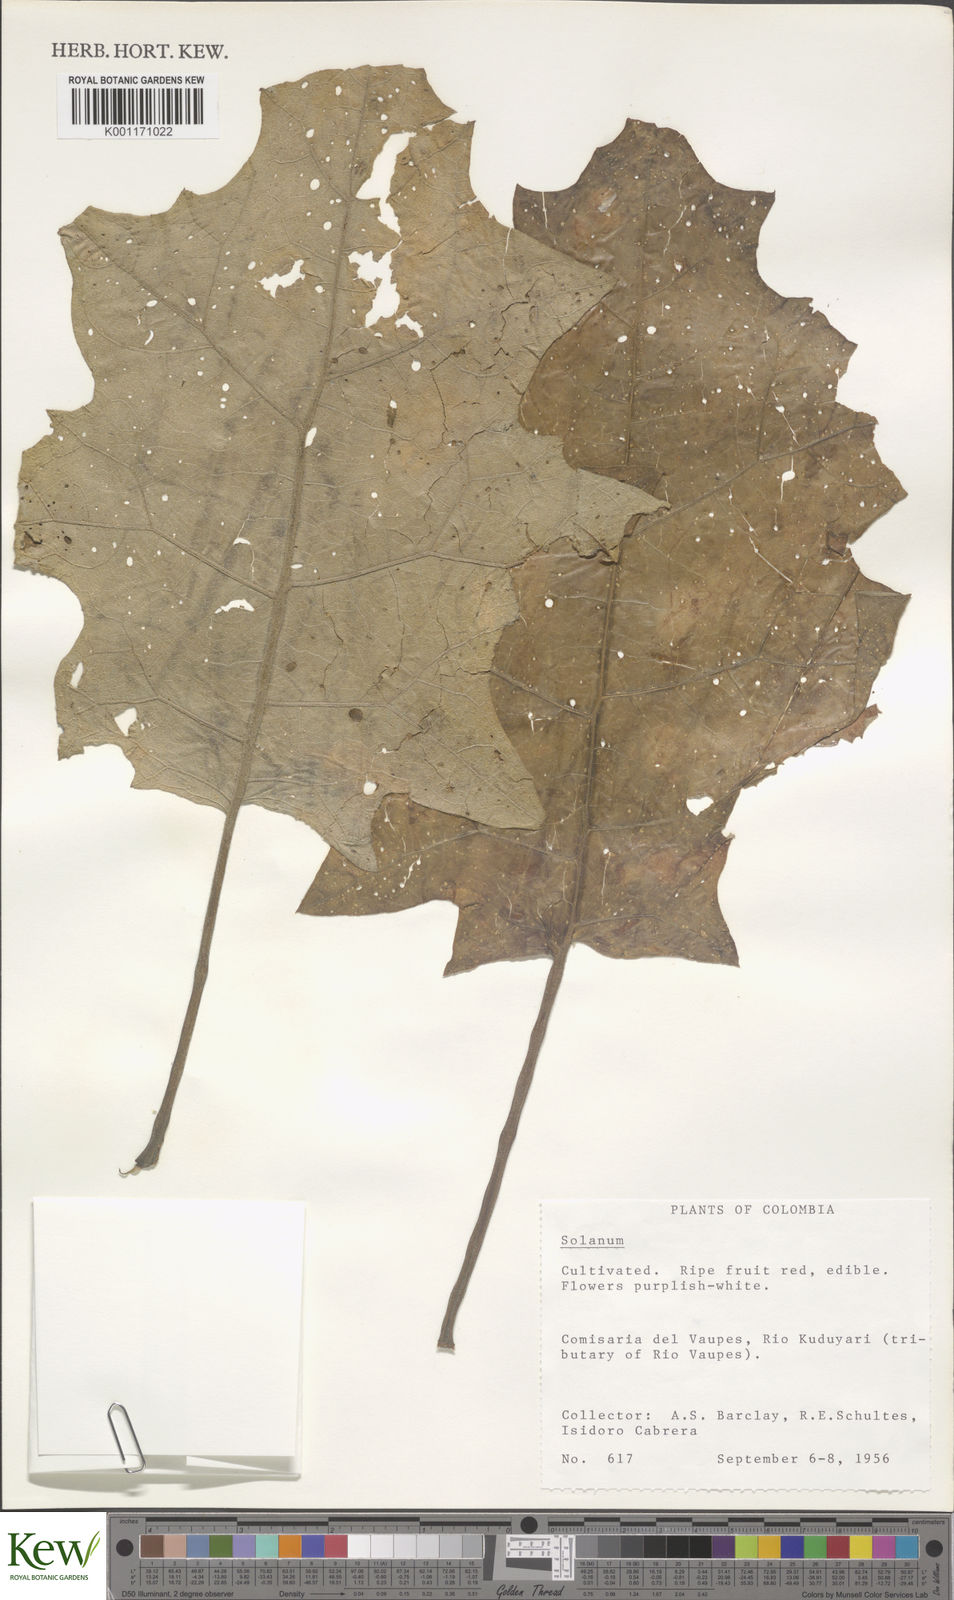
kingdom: Plantae
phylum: Tracheophyta
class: Magnoliopsida
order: Solanales
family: Solanaceae
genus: Solanum
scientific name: Solanum
